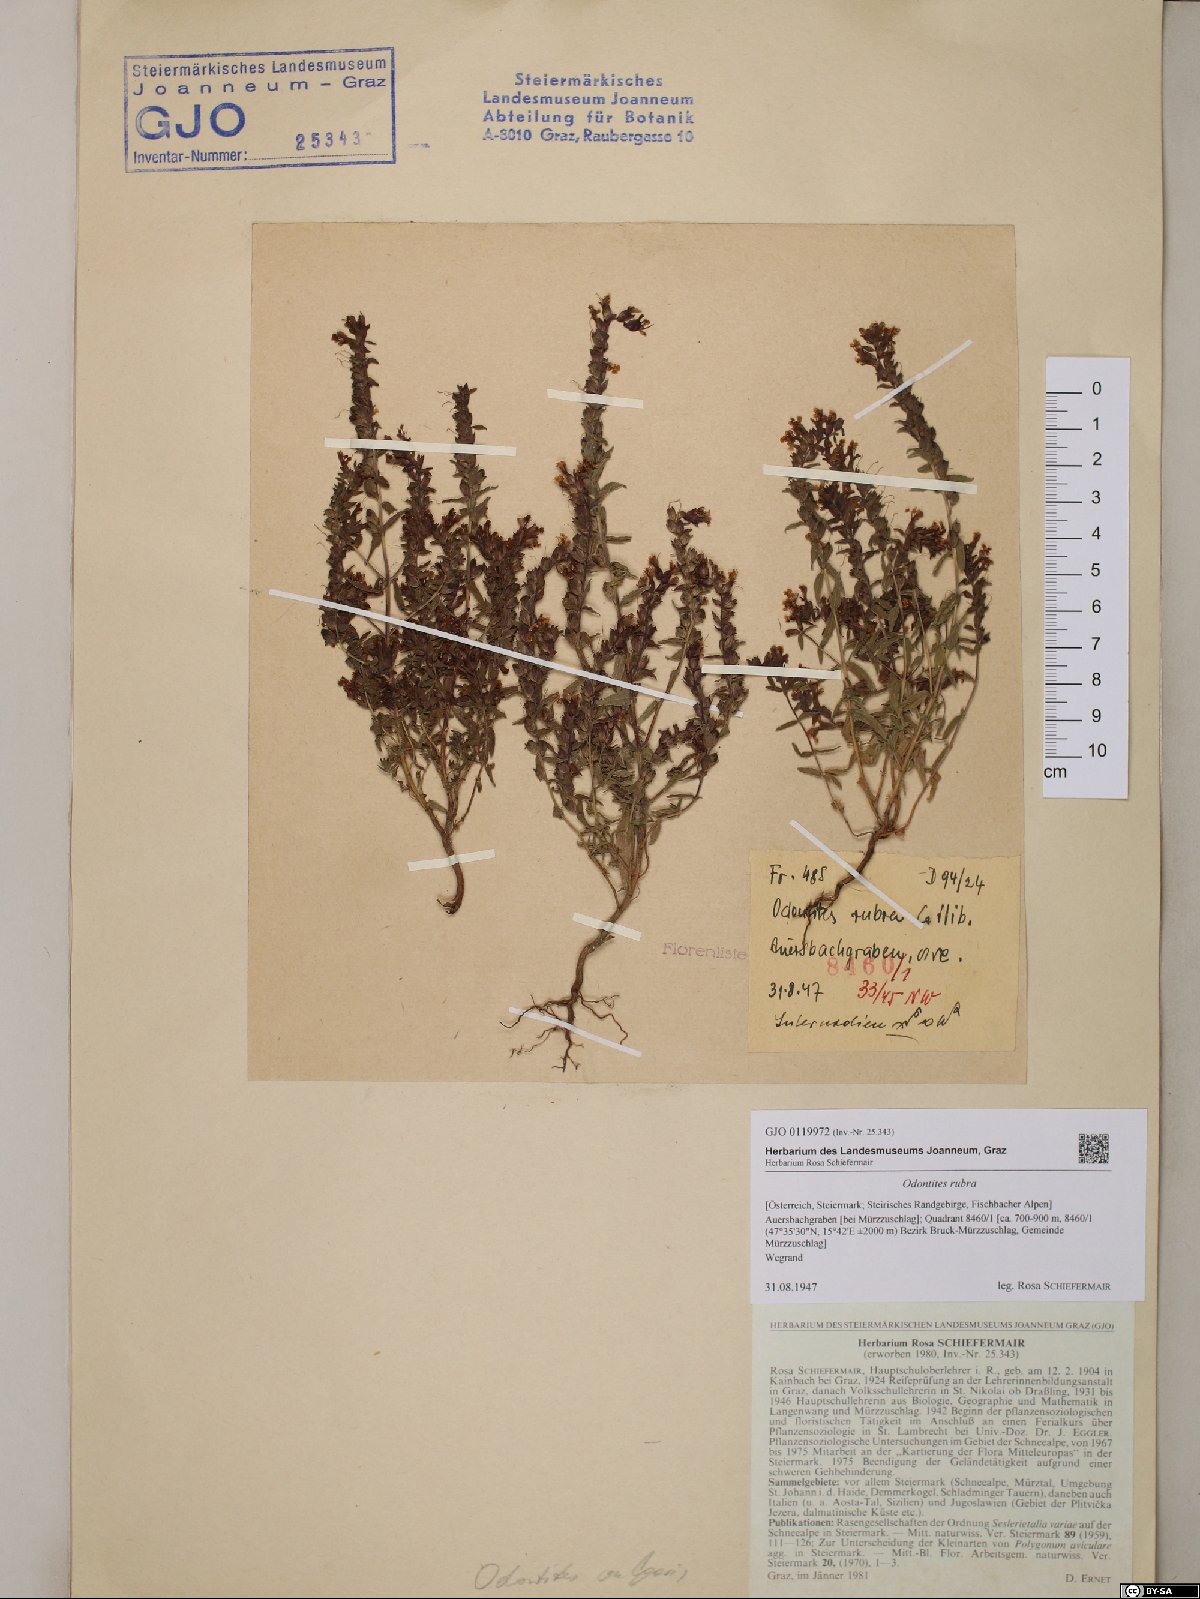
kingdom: Plantae
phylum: Tracheophyta
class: Magnoliopsida
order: Lamiales
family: Orobanchaceae
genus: Odontites
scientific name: Odontites vulgaris
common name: Broomrape
